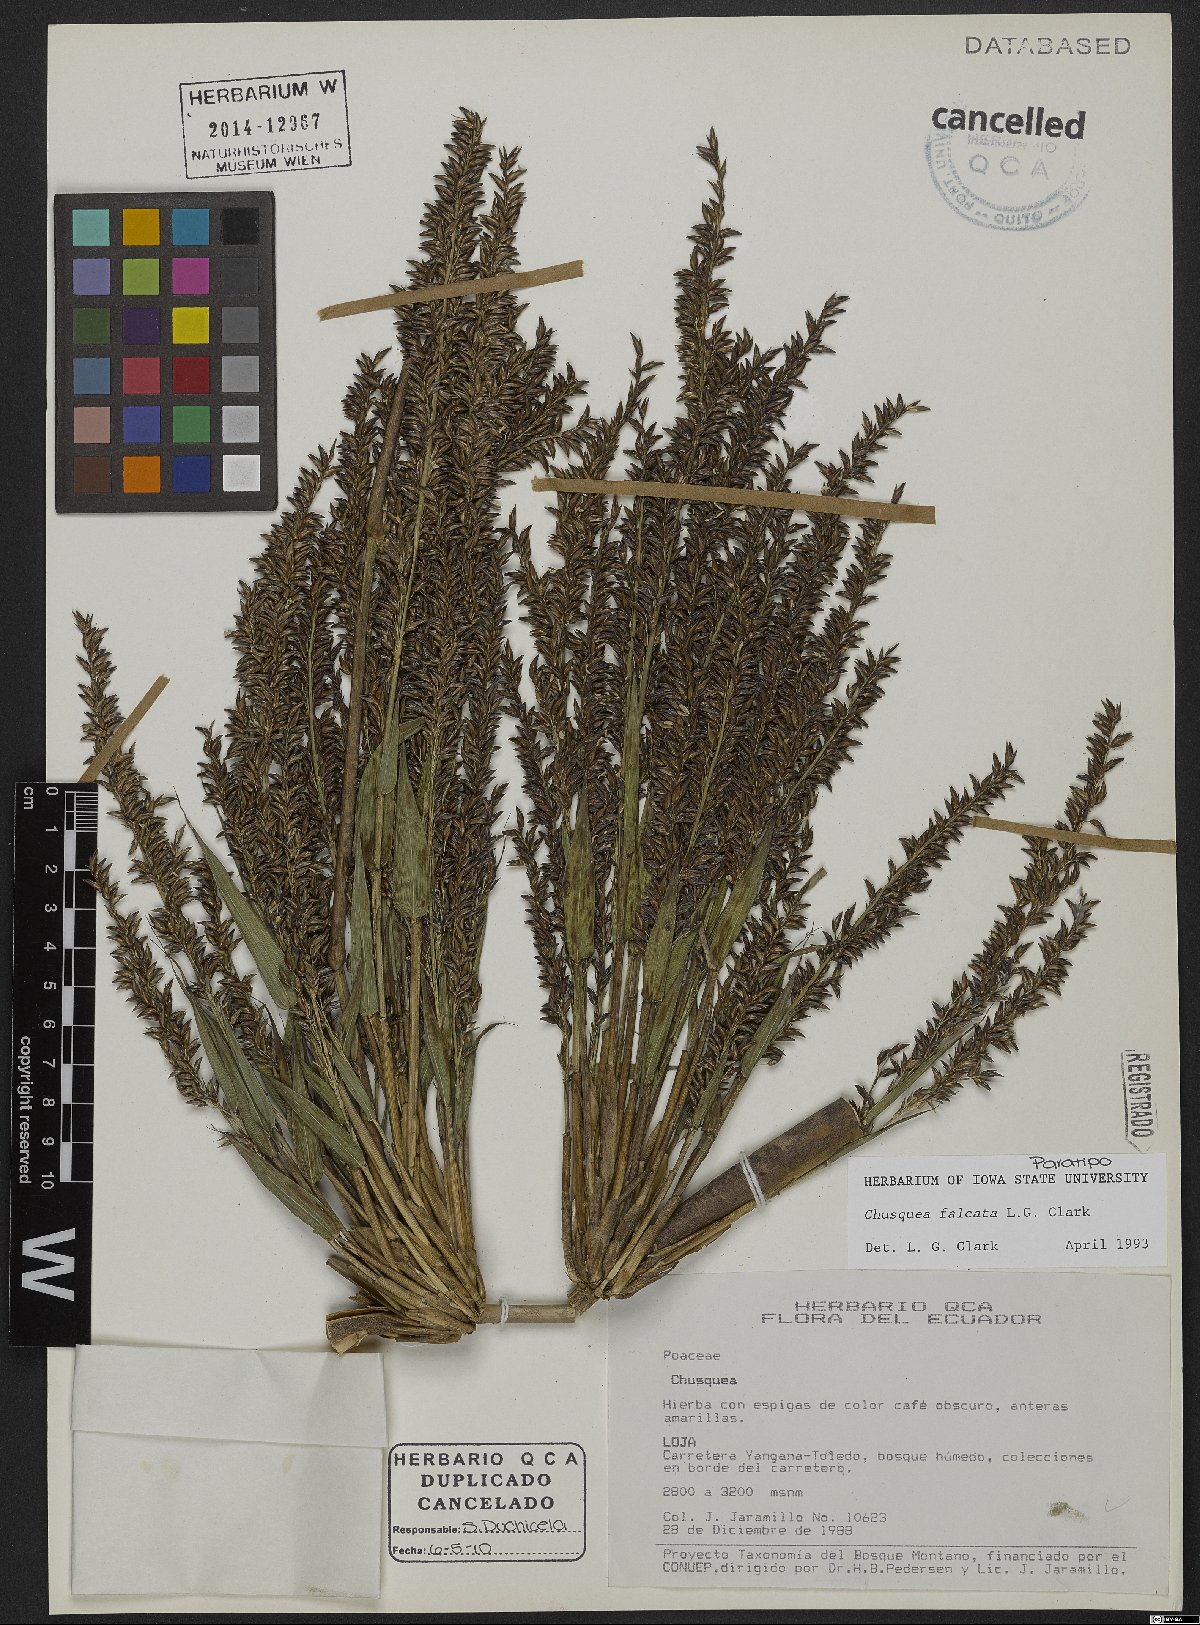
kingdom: Plantae
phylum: Tracheophyta
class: Liliopsida
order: Poales
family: Poaceae
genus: Chusquea
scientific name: Chusquea falcata
